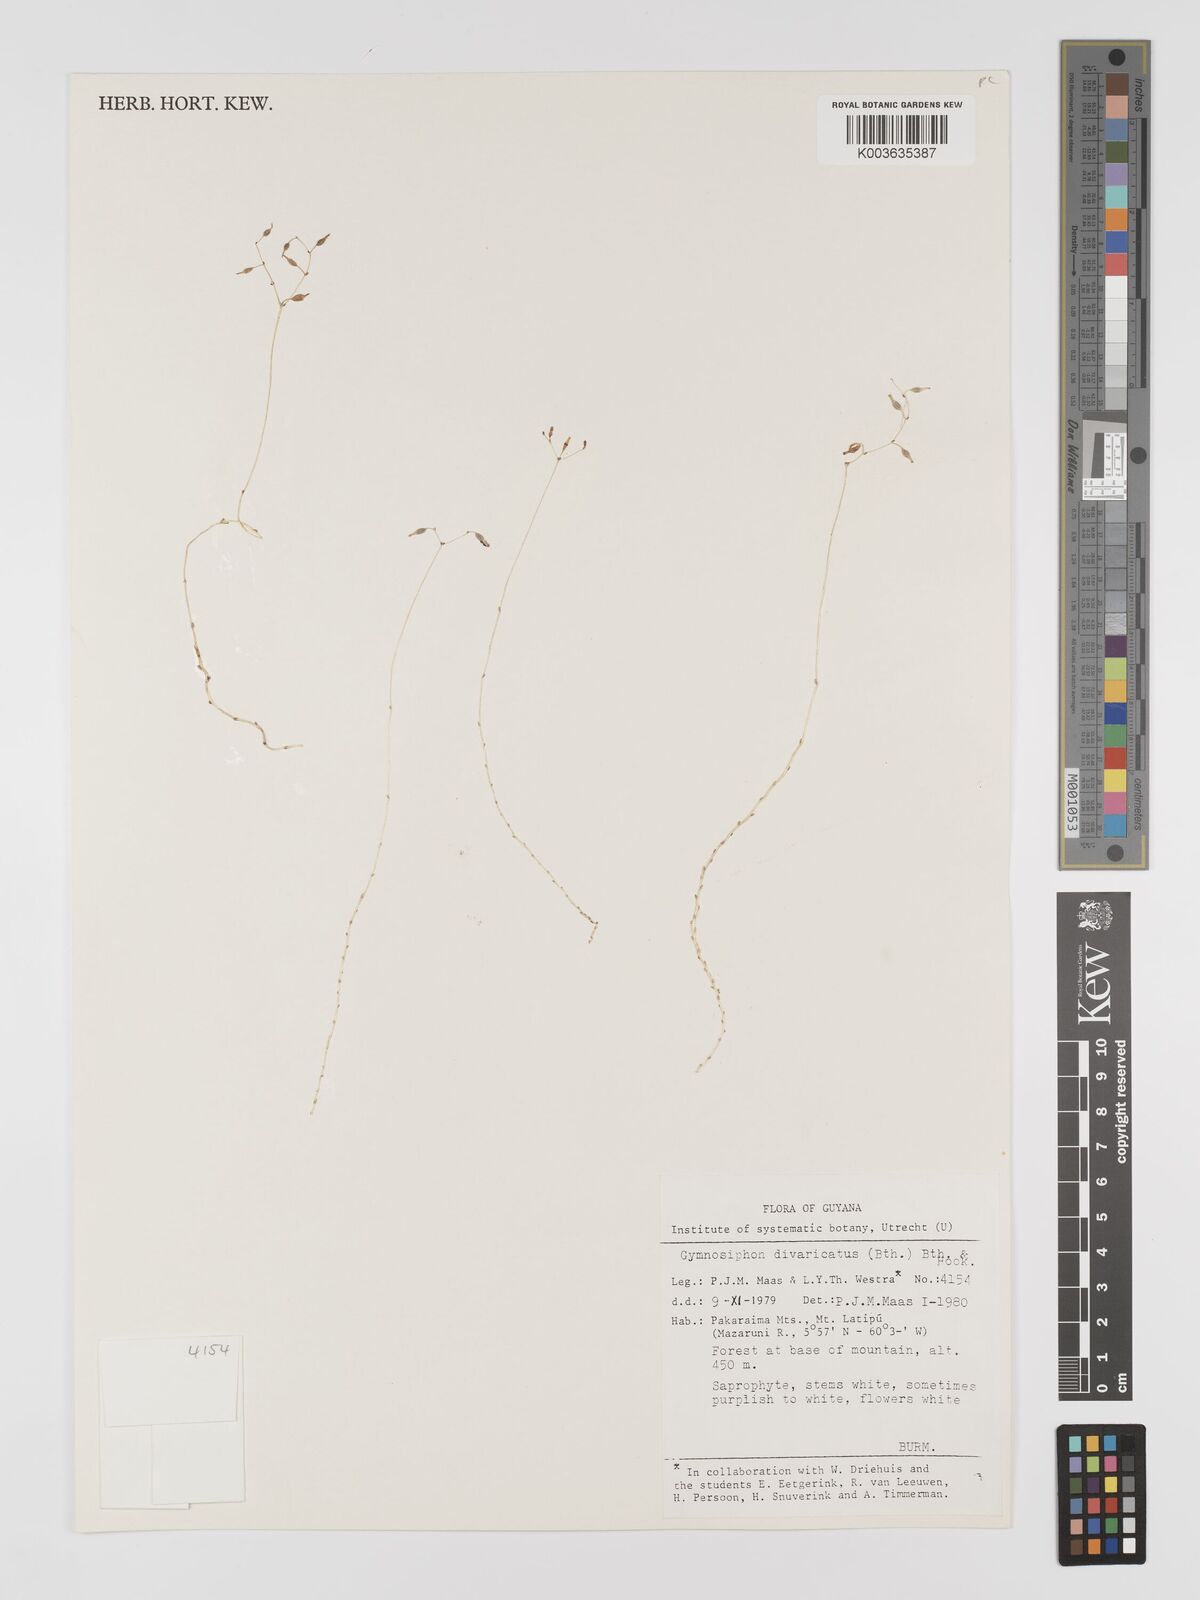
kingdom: Plantae
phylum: Tracheophyta
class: Liliopsida
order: Dioscoreales
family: Burmanniaceae
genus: Gymnosiphon
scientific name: Gymnosiphon divaricatus
